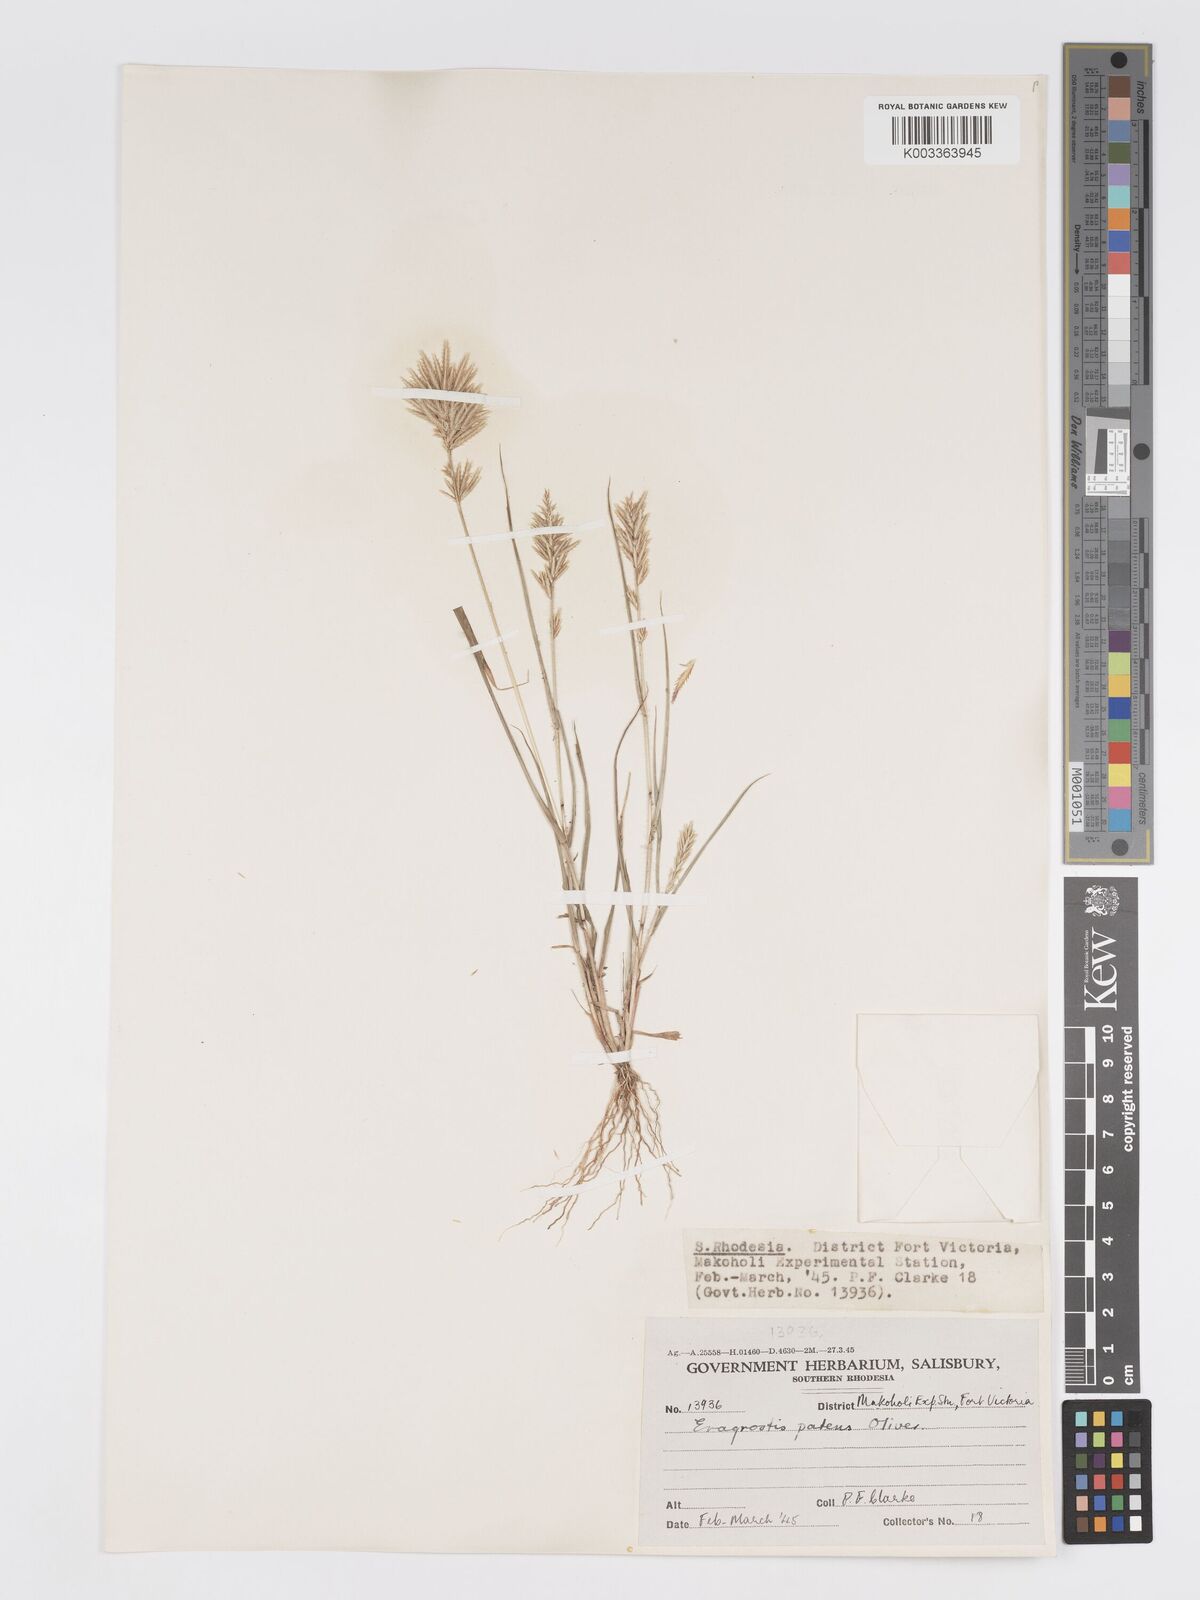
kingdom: Plantae
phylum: Tracheophyta
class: Liliopsida
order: Poales
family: Poaceae
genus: Eragrostis
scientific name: Eragrostis patens
